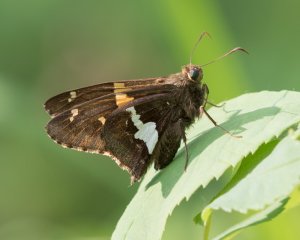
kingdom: Animalia
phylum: Arthropoda
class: Insecta
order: Lepidoptera
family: Hesperiidae
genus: Epargyreus
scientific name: Epargyreus clarus
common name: Silver-spotted Skipper
